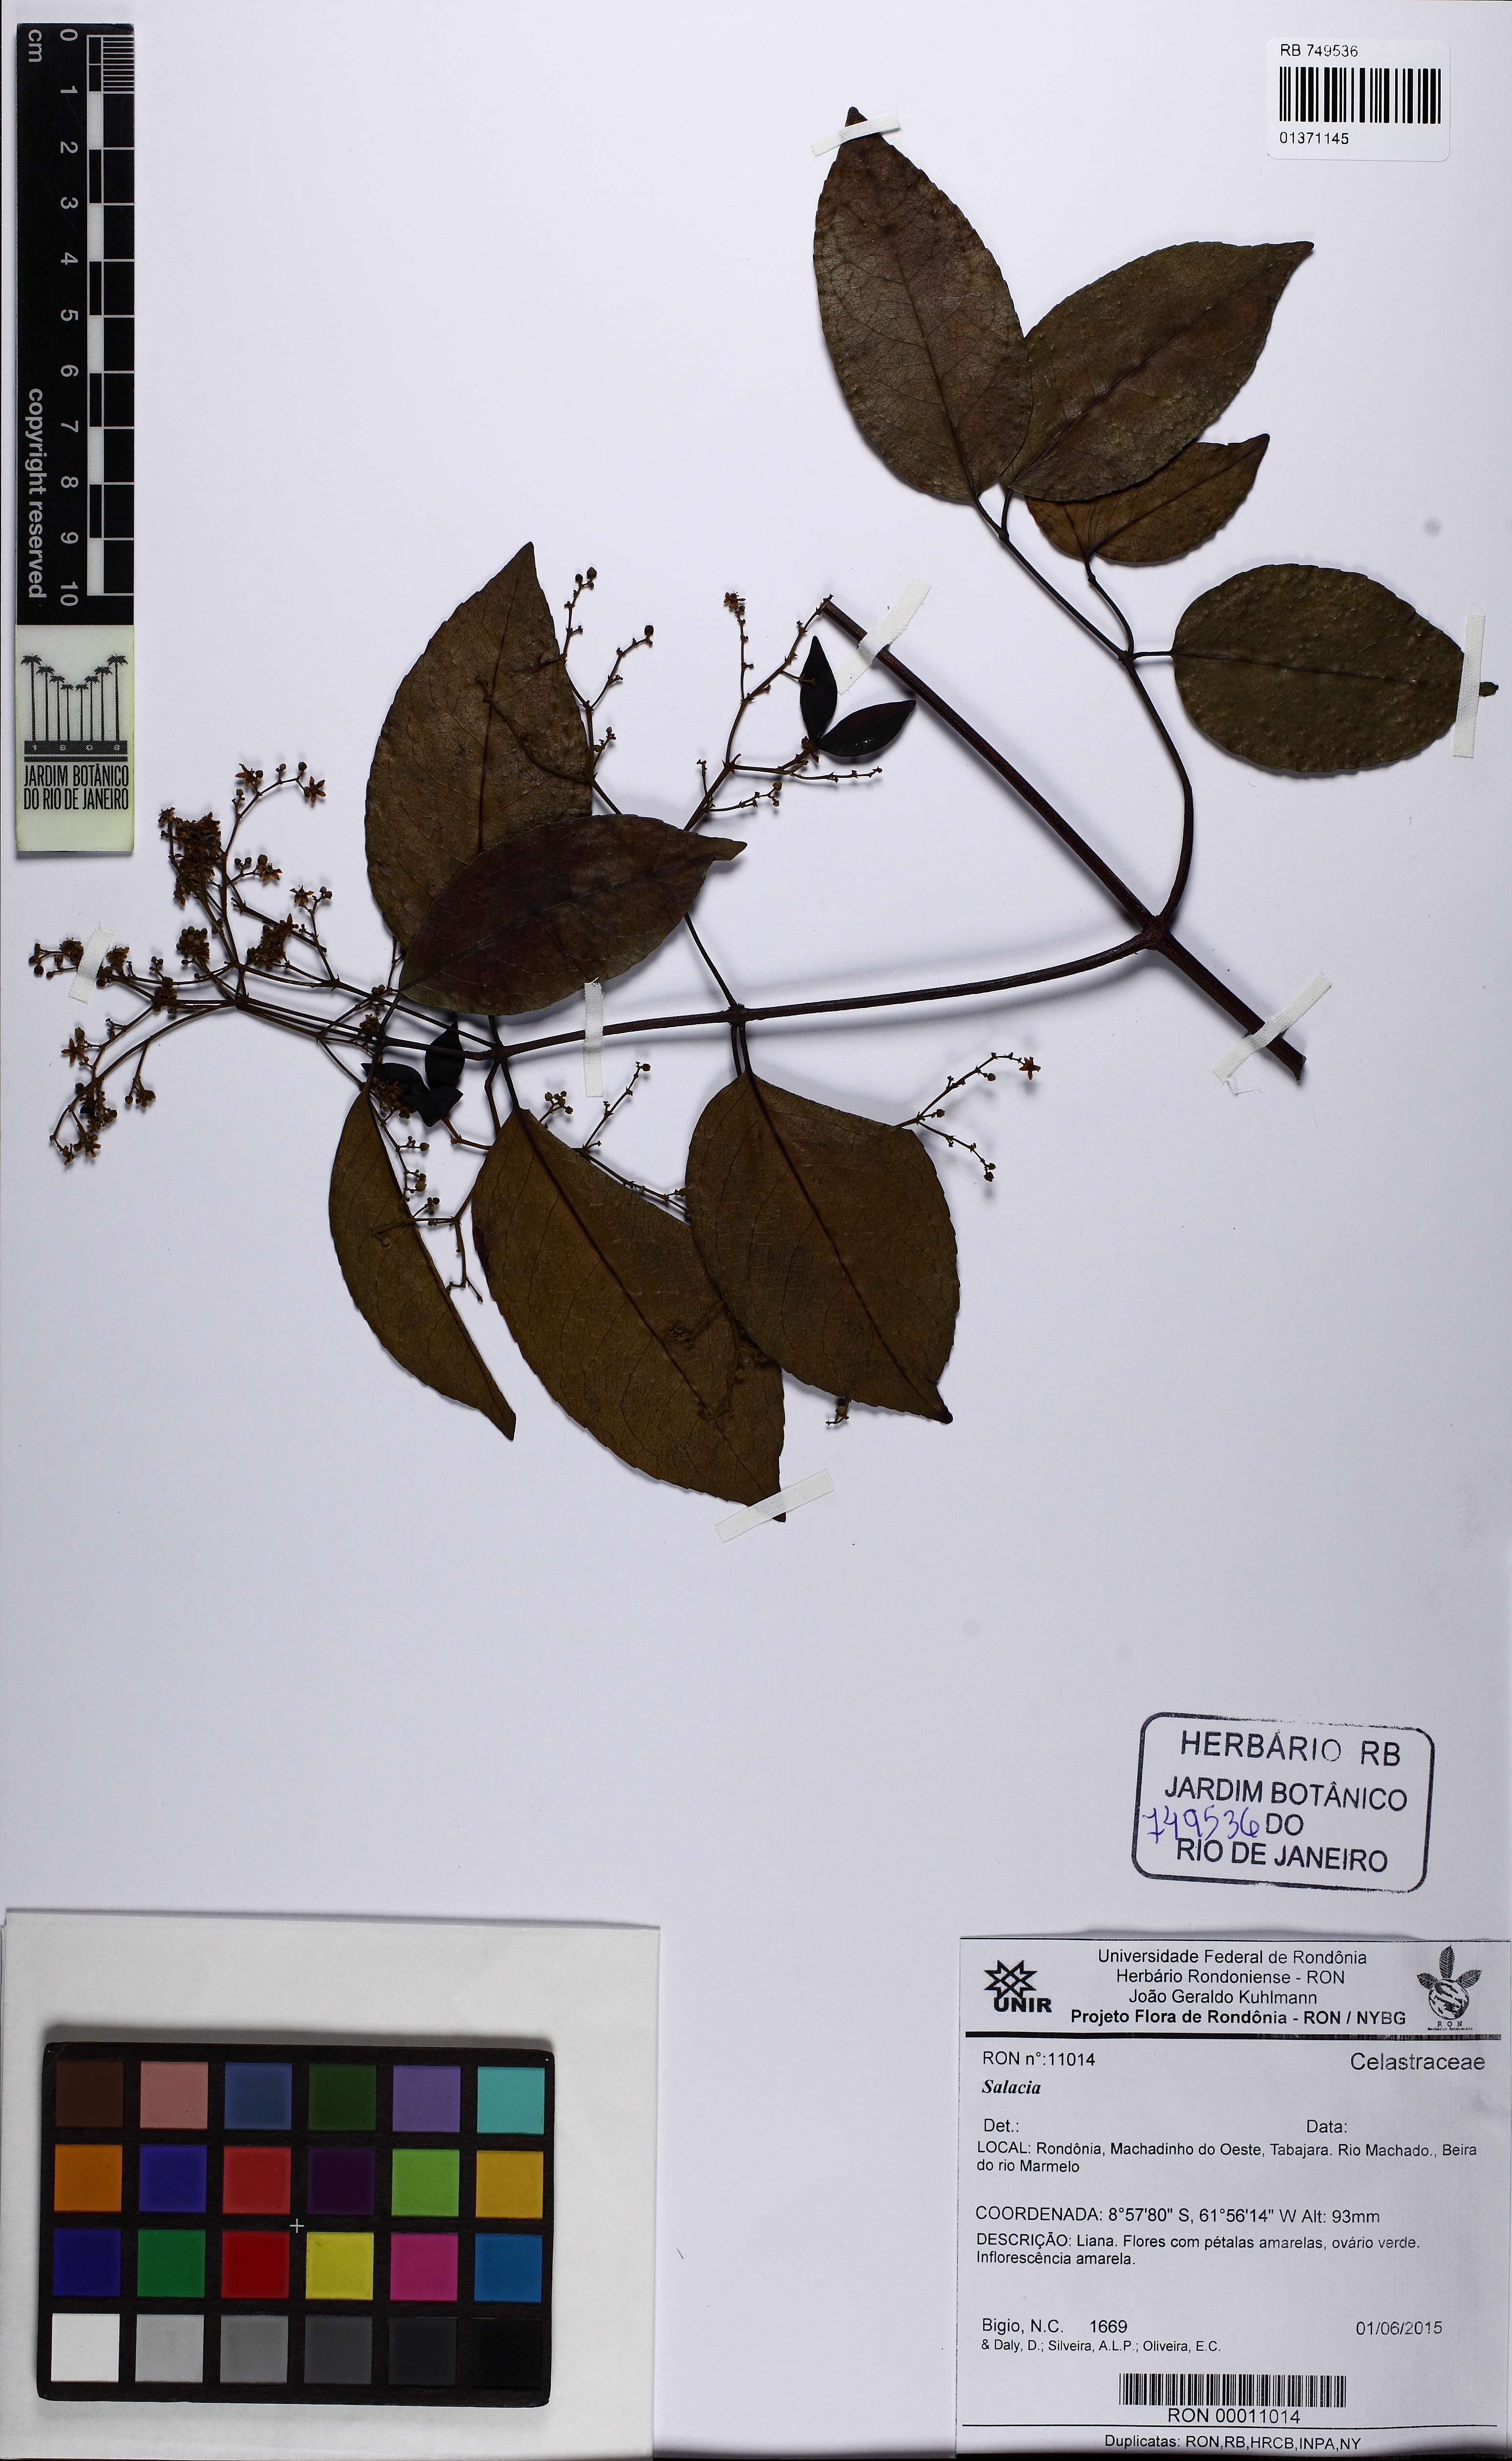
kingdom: Plantae
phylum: Tracheophyta
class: Magnoliopsida
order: Celastrales
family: Celastraceae
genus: Salacia
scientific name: Salacia
